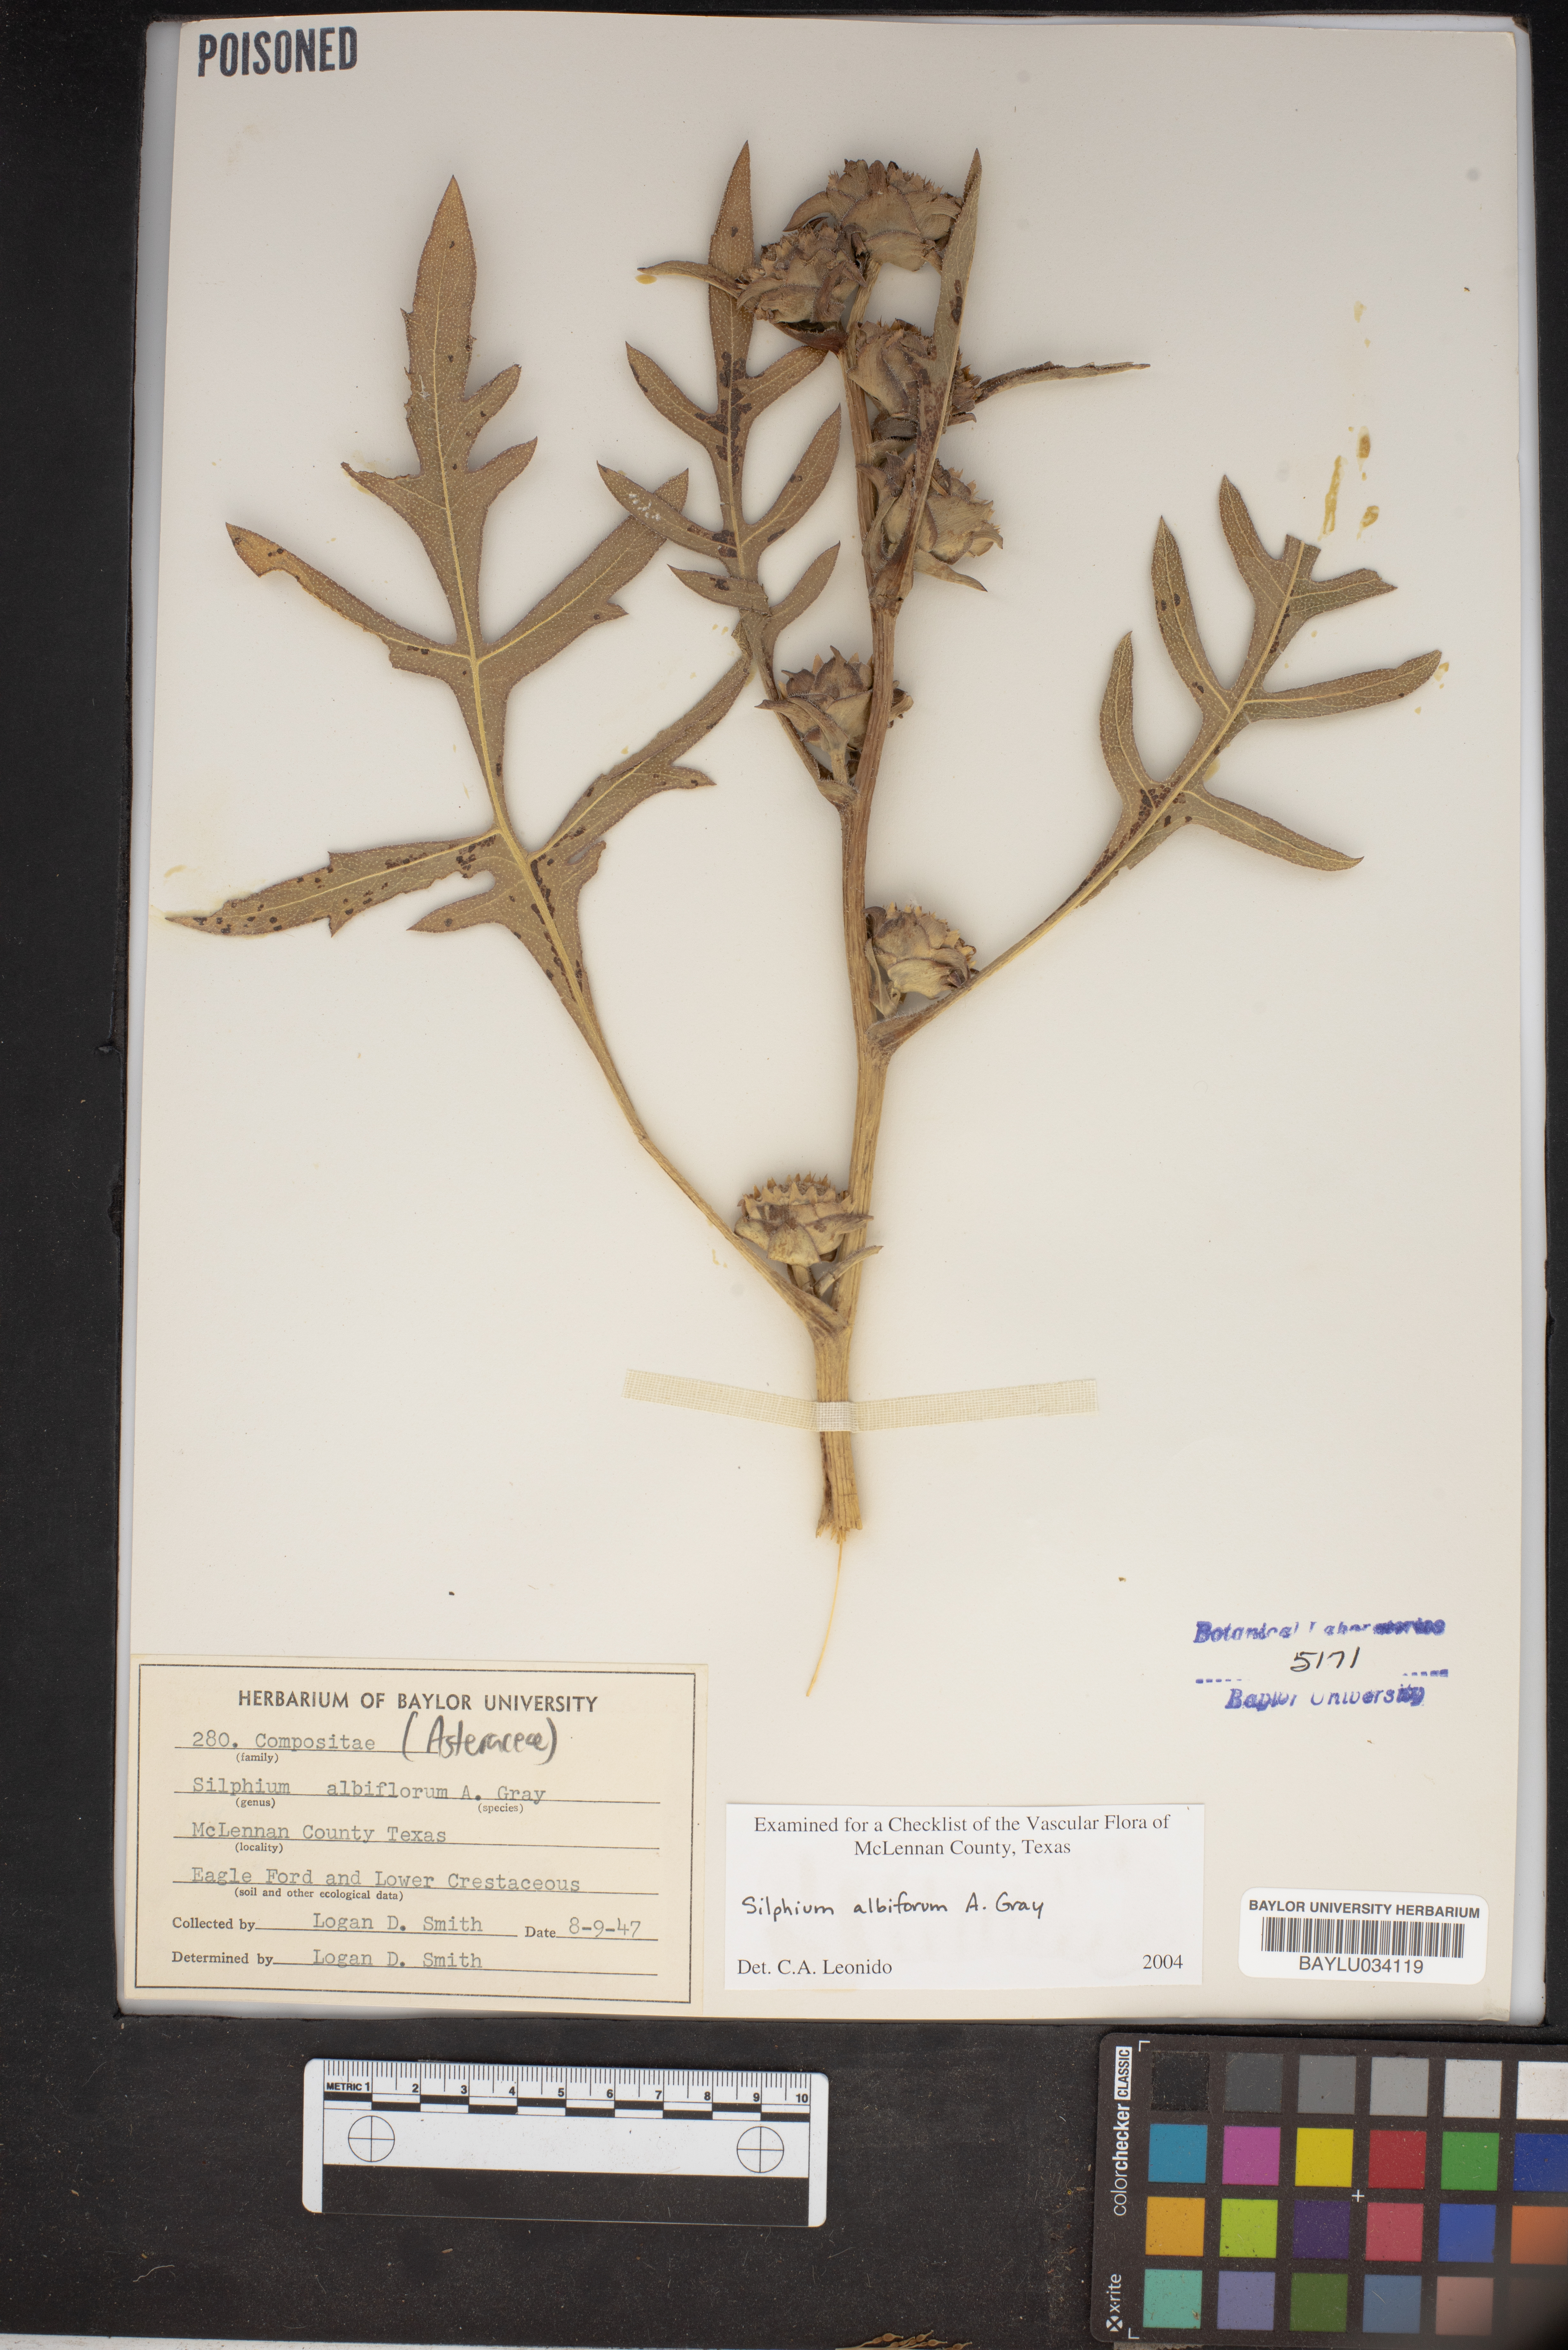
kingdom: Plantae
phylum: Tracheophyta
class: Magnoliopsida
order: Asterales
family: Asteraceae
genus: Silphium
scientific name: Silphium albiflorum
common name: White rosinweed
